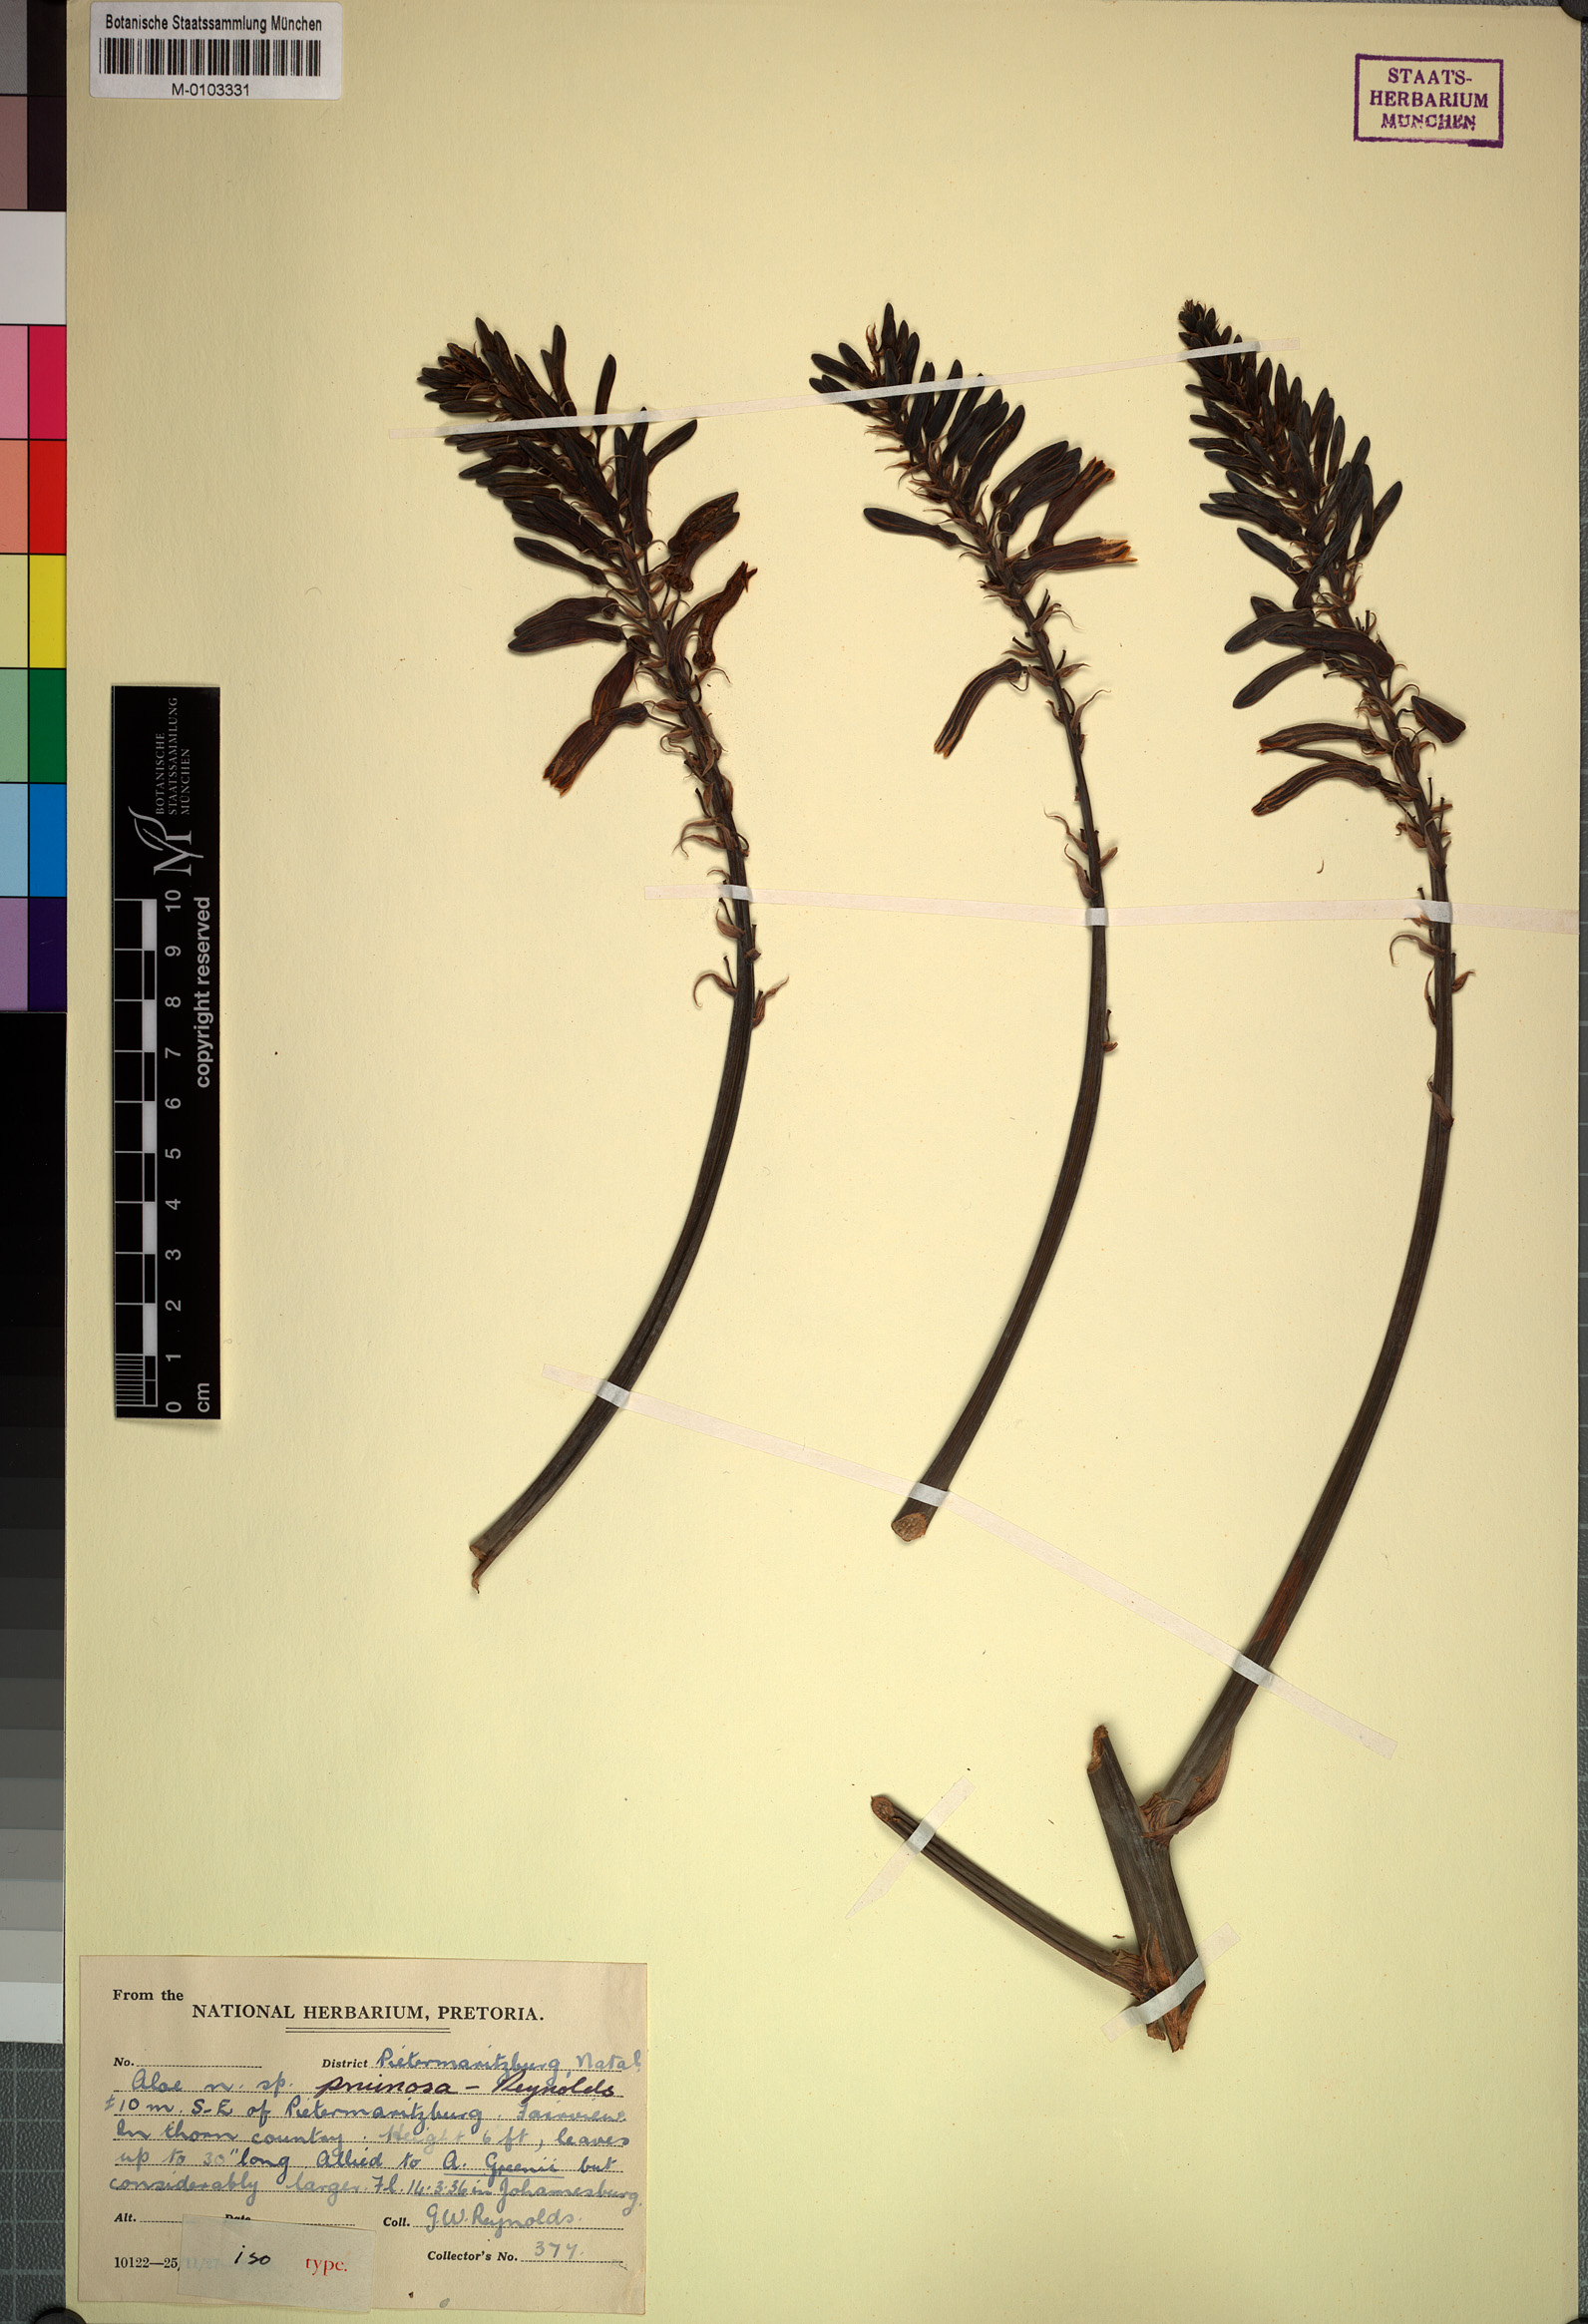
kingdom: Plantae
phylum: Tracheophyta
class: Liliopsida
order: Asparagales
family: Asphodelaceae
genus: Aloe
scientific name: Aloe pruinosa
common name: Powder aloe
